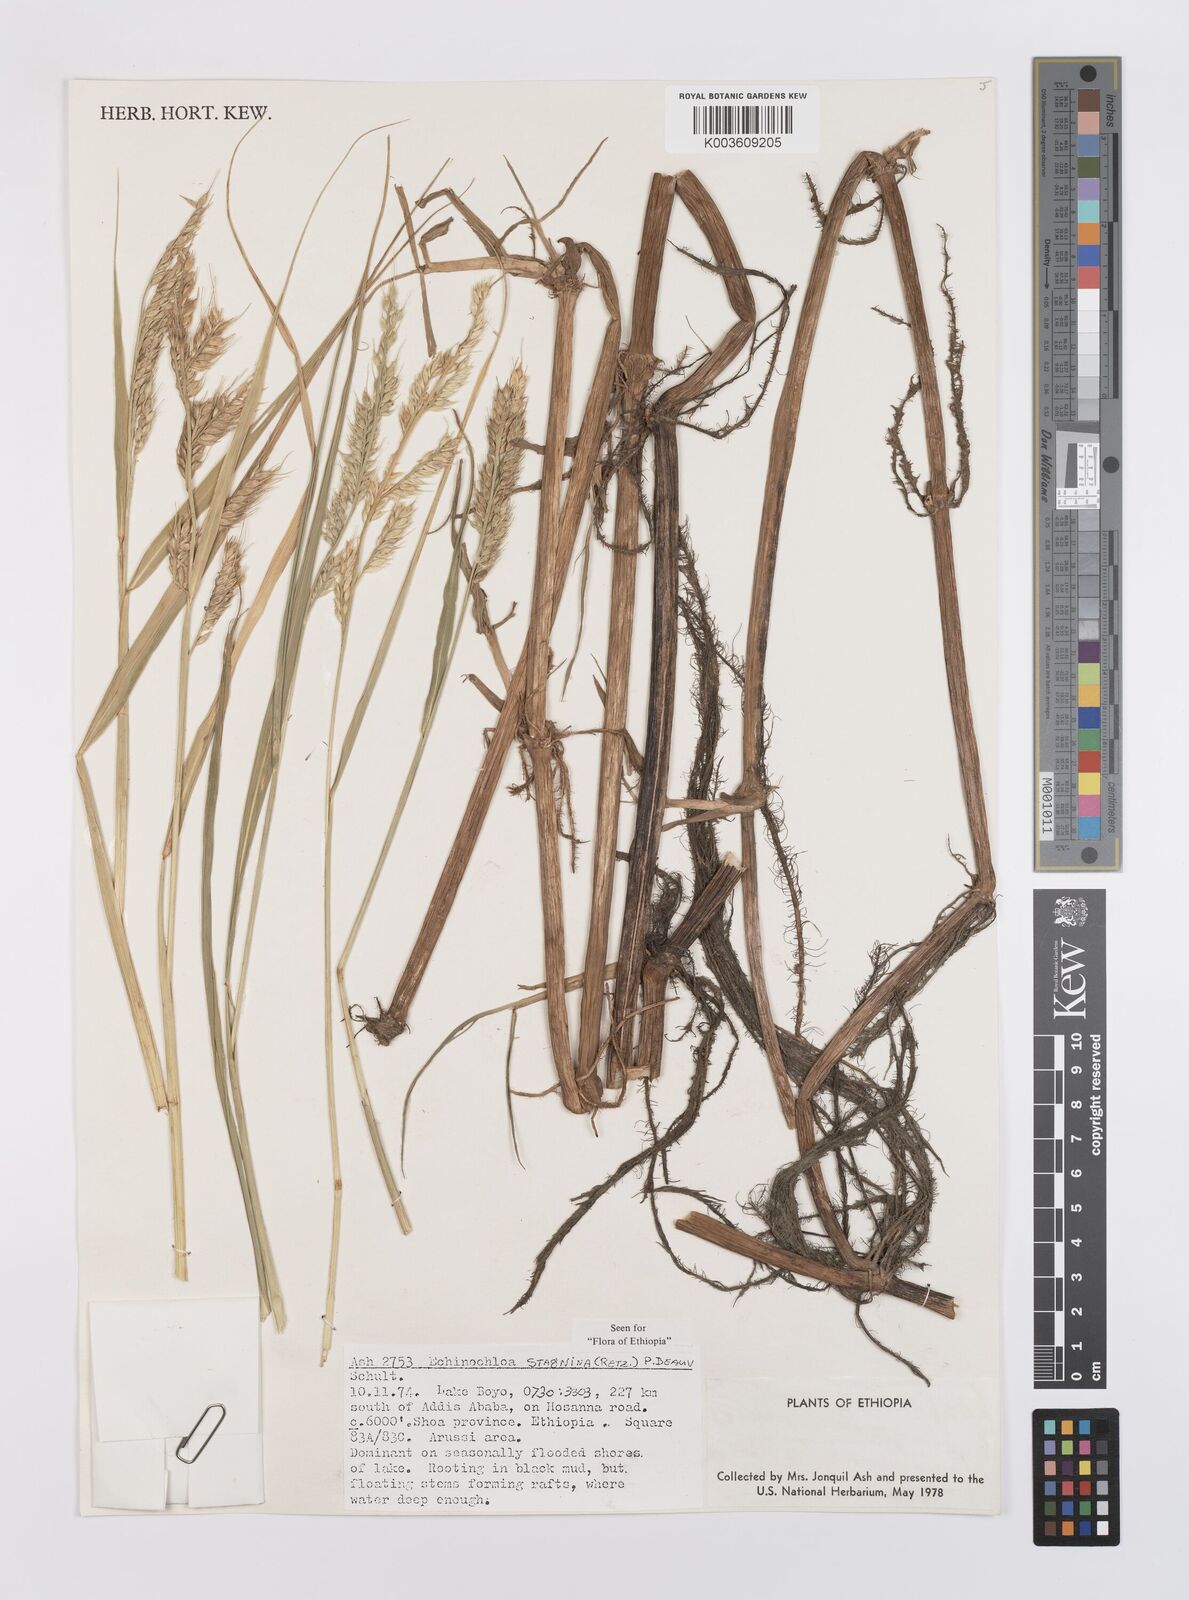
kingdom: Plantae
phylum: Tracheophyta
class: Liliopsida
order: Poales
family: Poaceae
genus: Echinochloa
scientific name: Echinochloa stagnina
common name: Burgu grass
